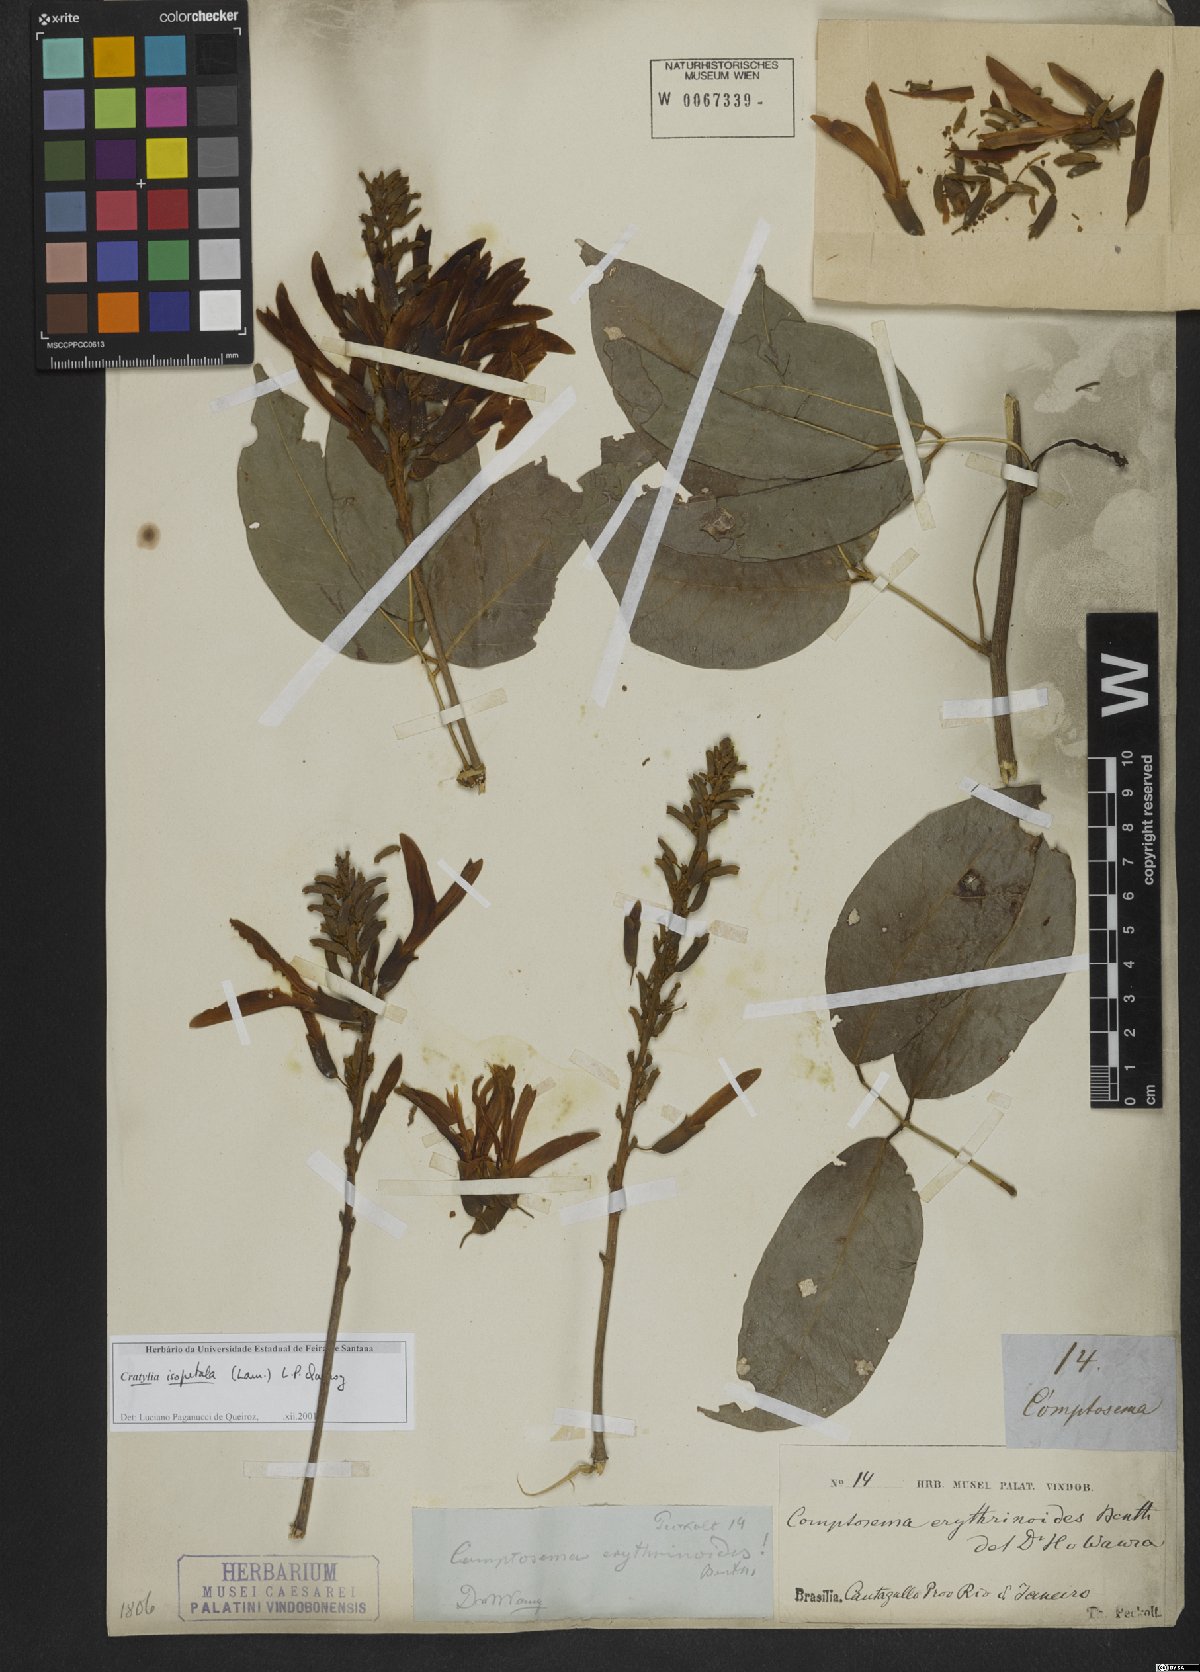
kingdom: Plantae
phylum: Tracheophyta
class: Magnoliopsida
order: Fabales
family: Fabaceae
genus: Cratylia
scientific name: Cratylia isopetala
